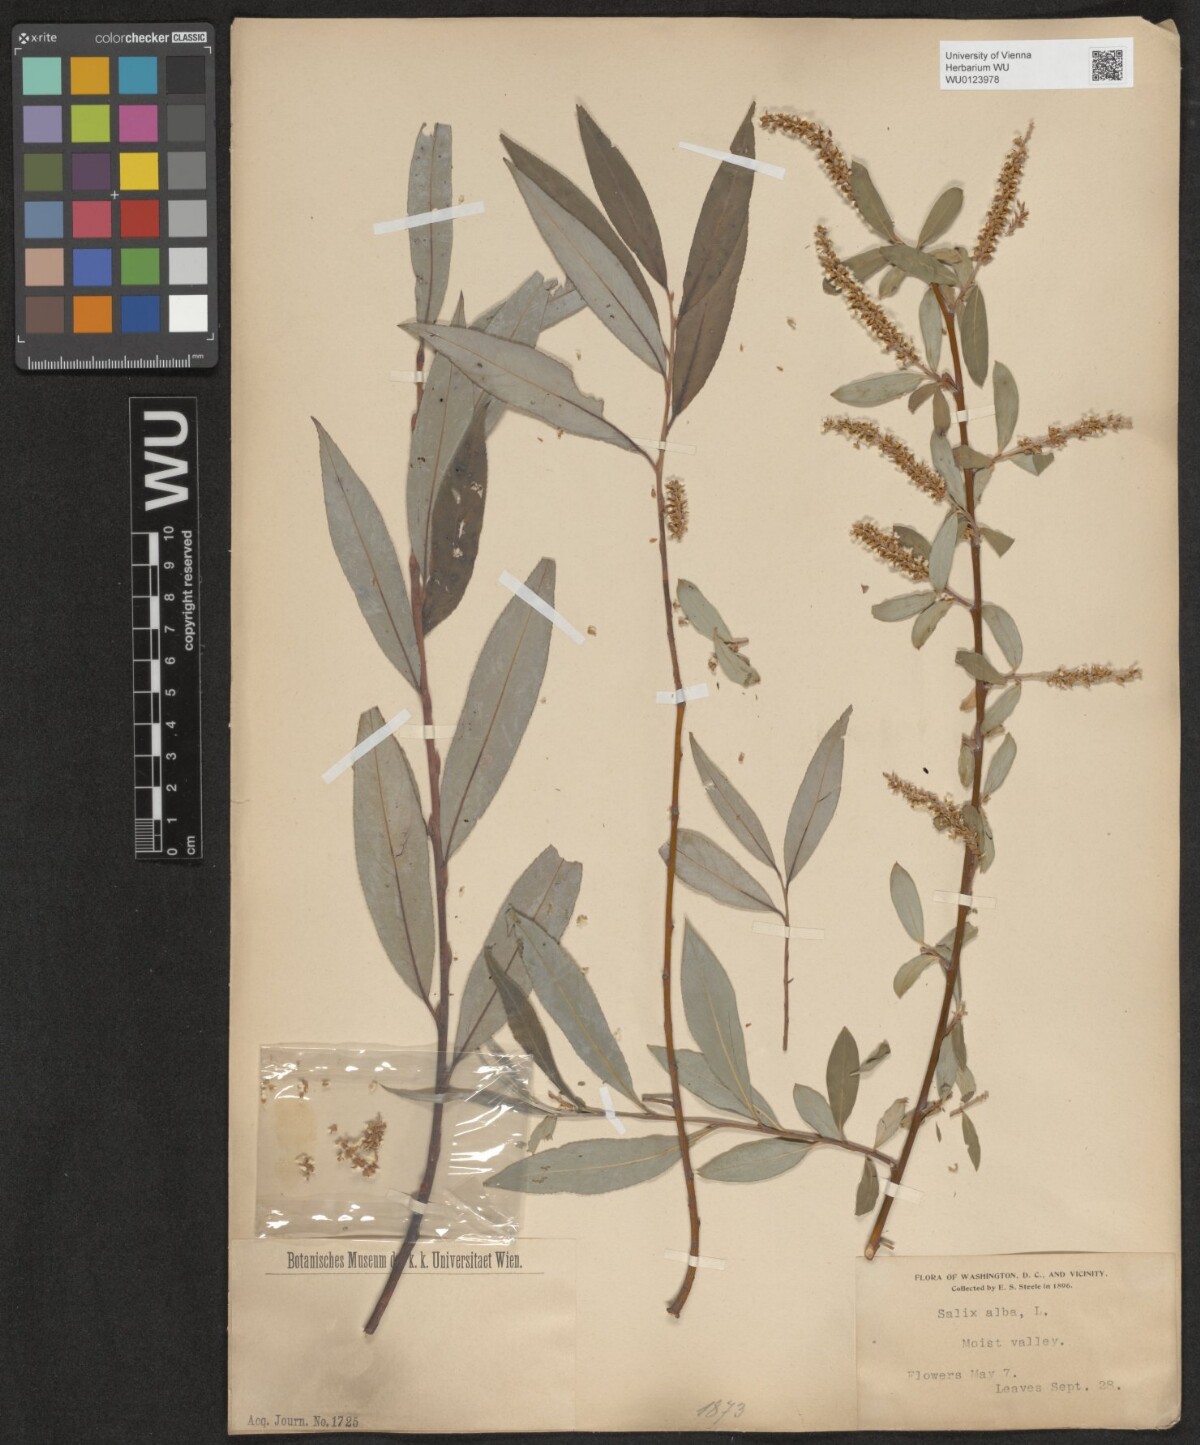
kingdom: Plantae
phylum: Tracheophyta
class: Magnoliopsida
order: Malpighiales
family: Salicaceae
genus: Salix
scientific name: Salix alba
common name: White willow
